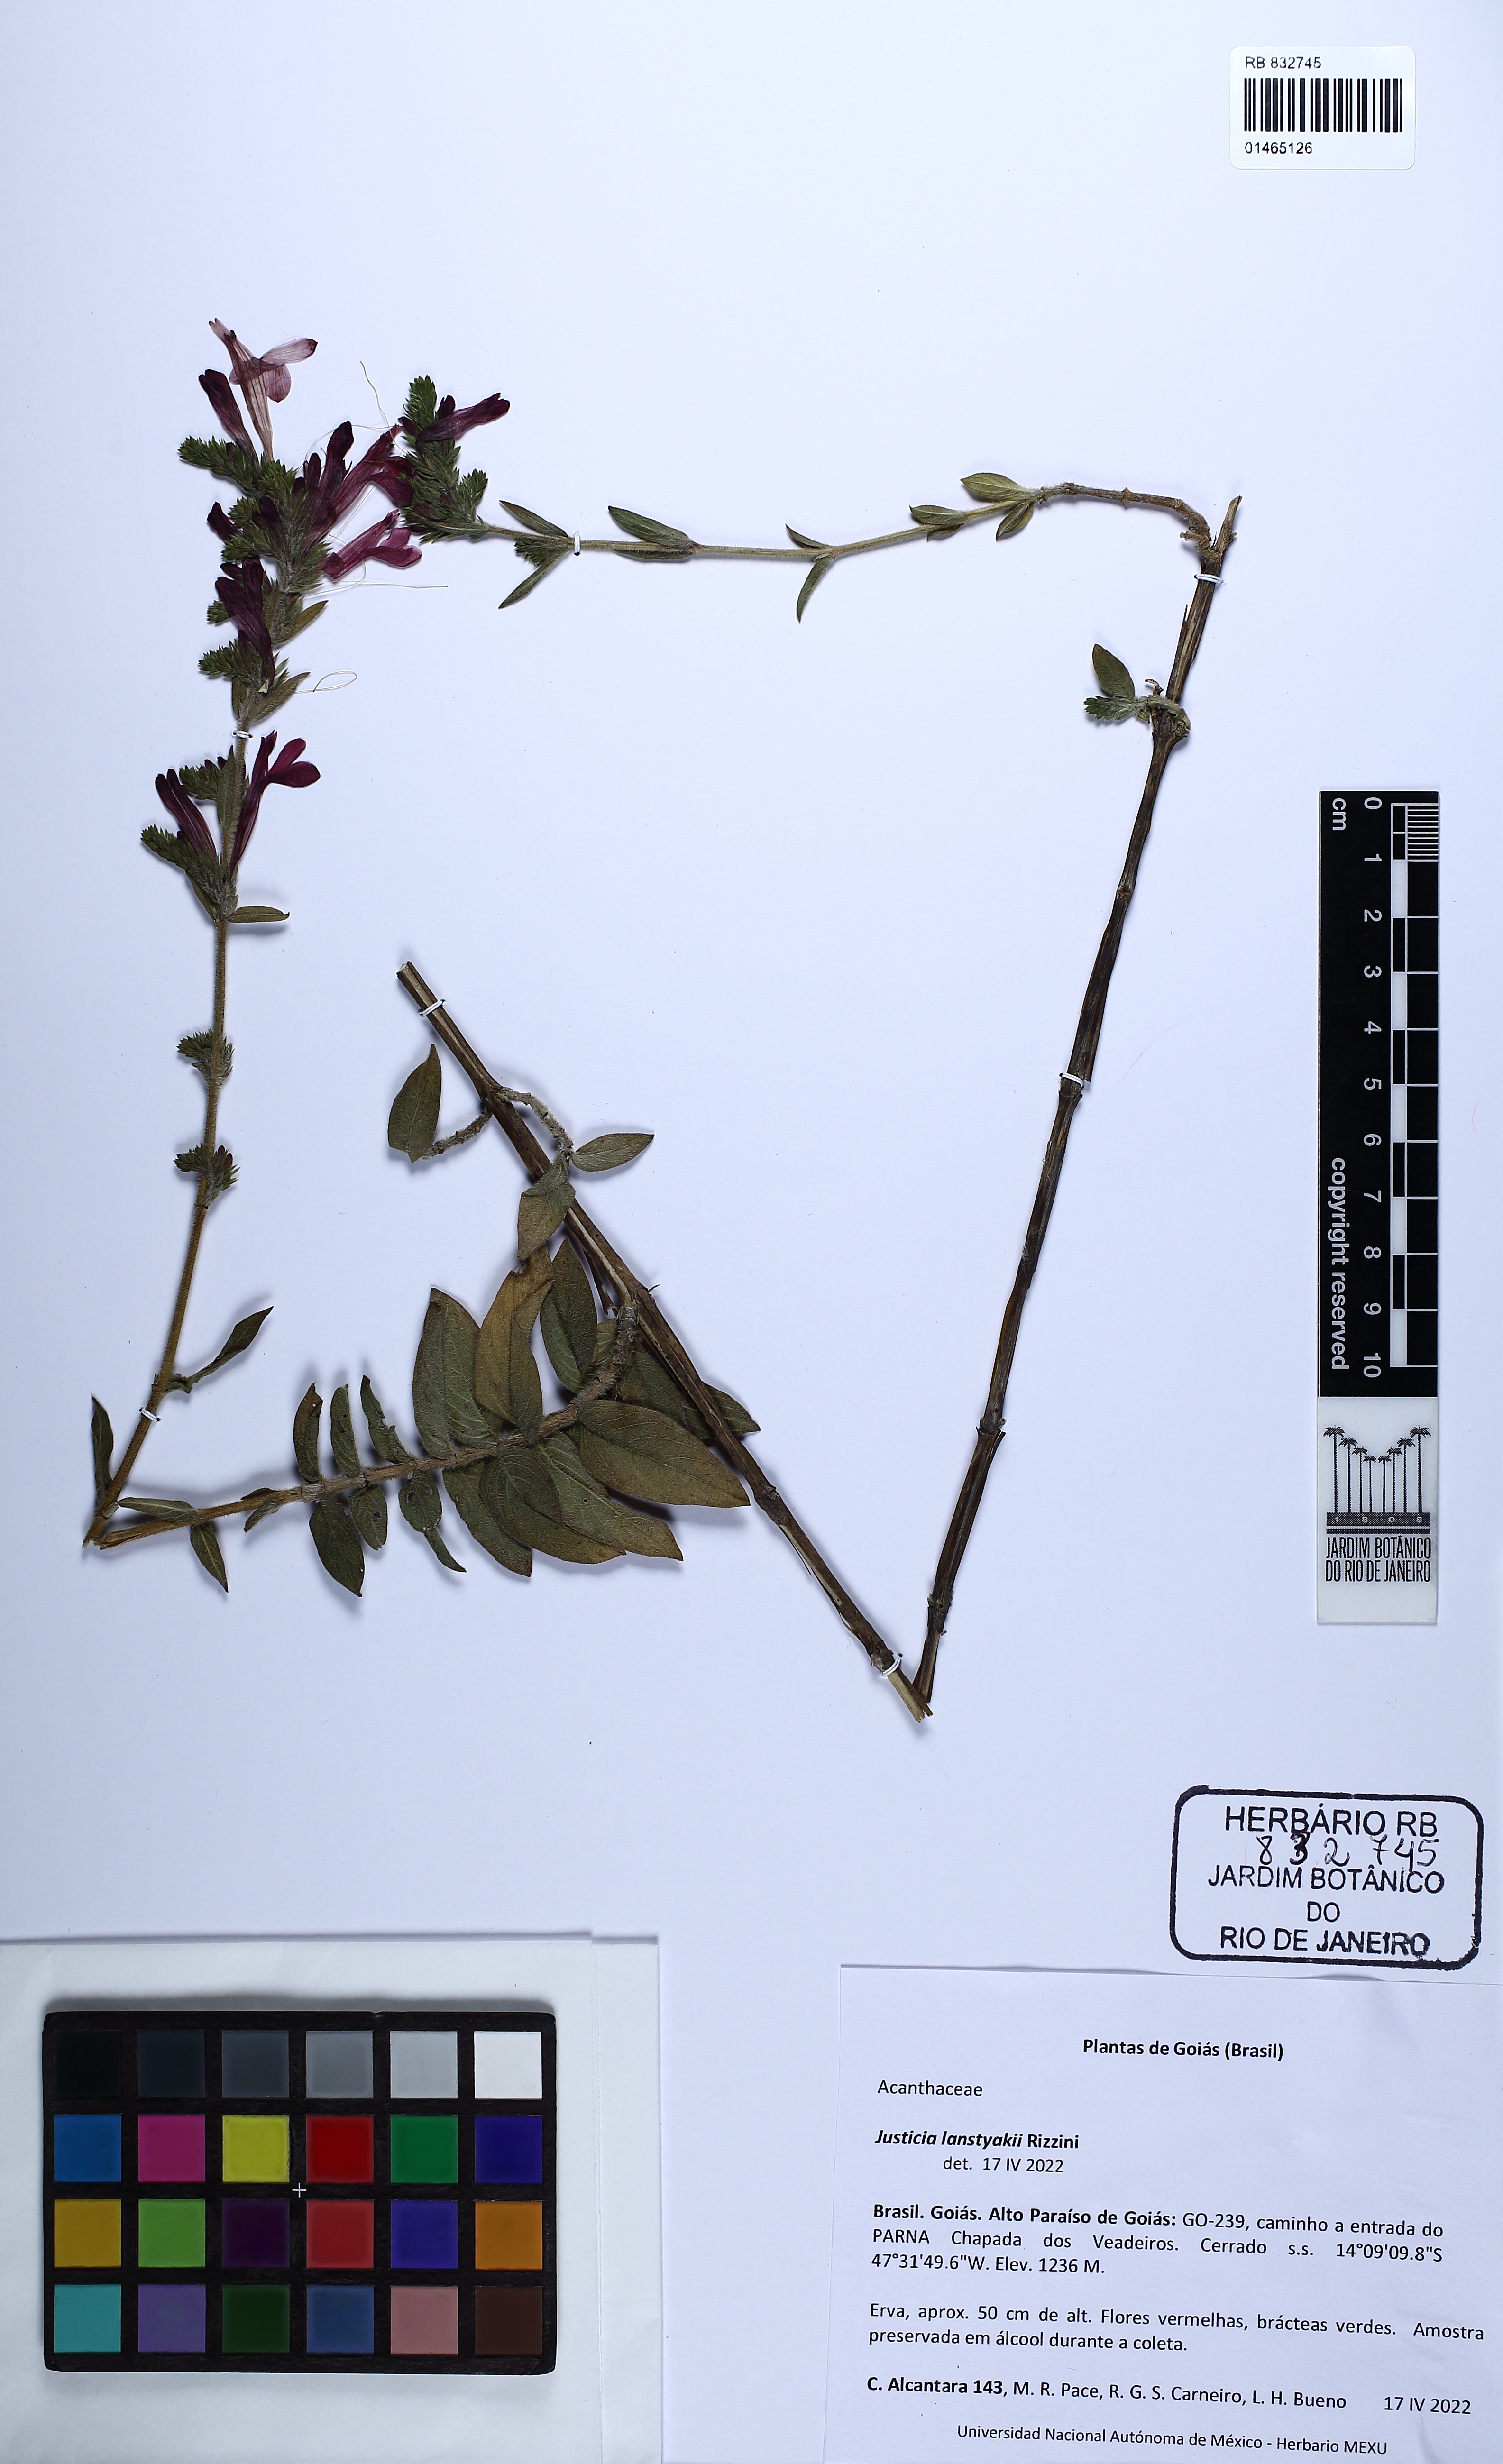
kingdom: Plantae
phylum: Tracheophyta
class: Magnoliopsida
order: Lamiales
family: Acanthaceae
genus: Justicia
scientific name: Justicia lanstyakii
